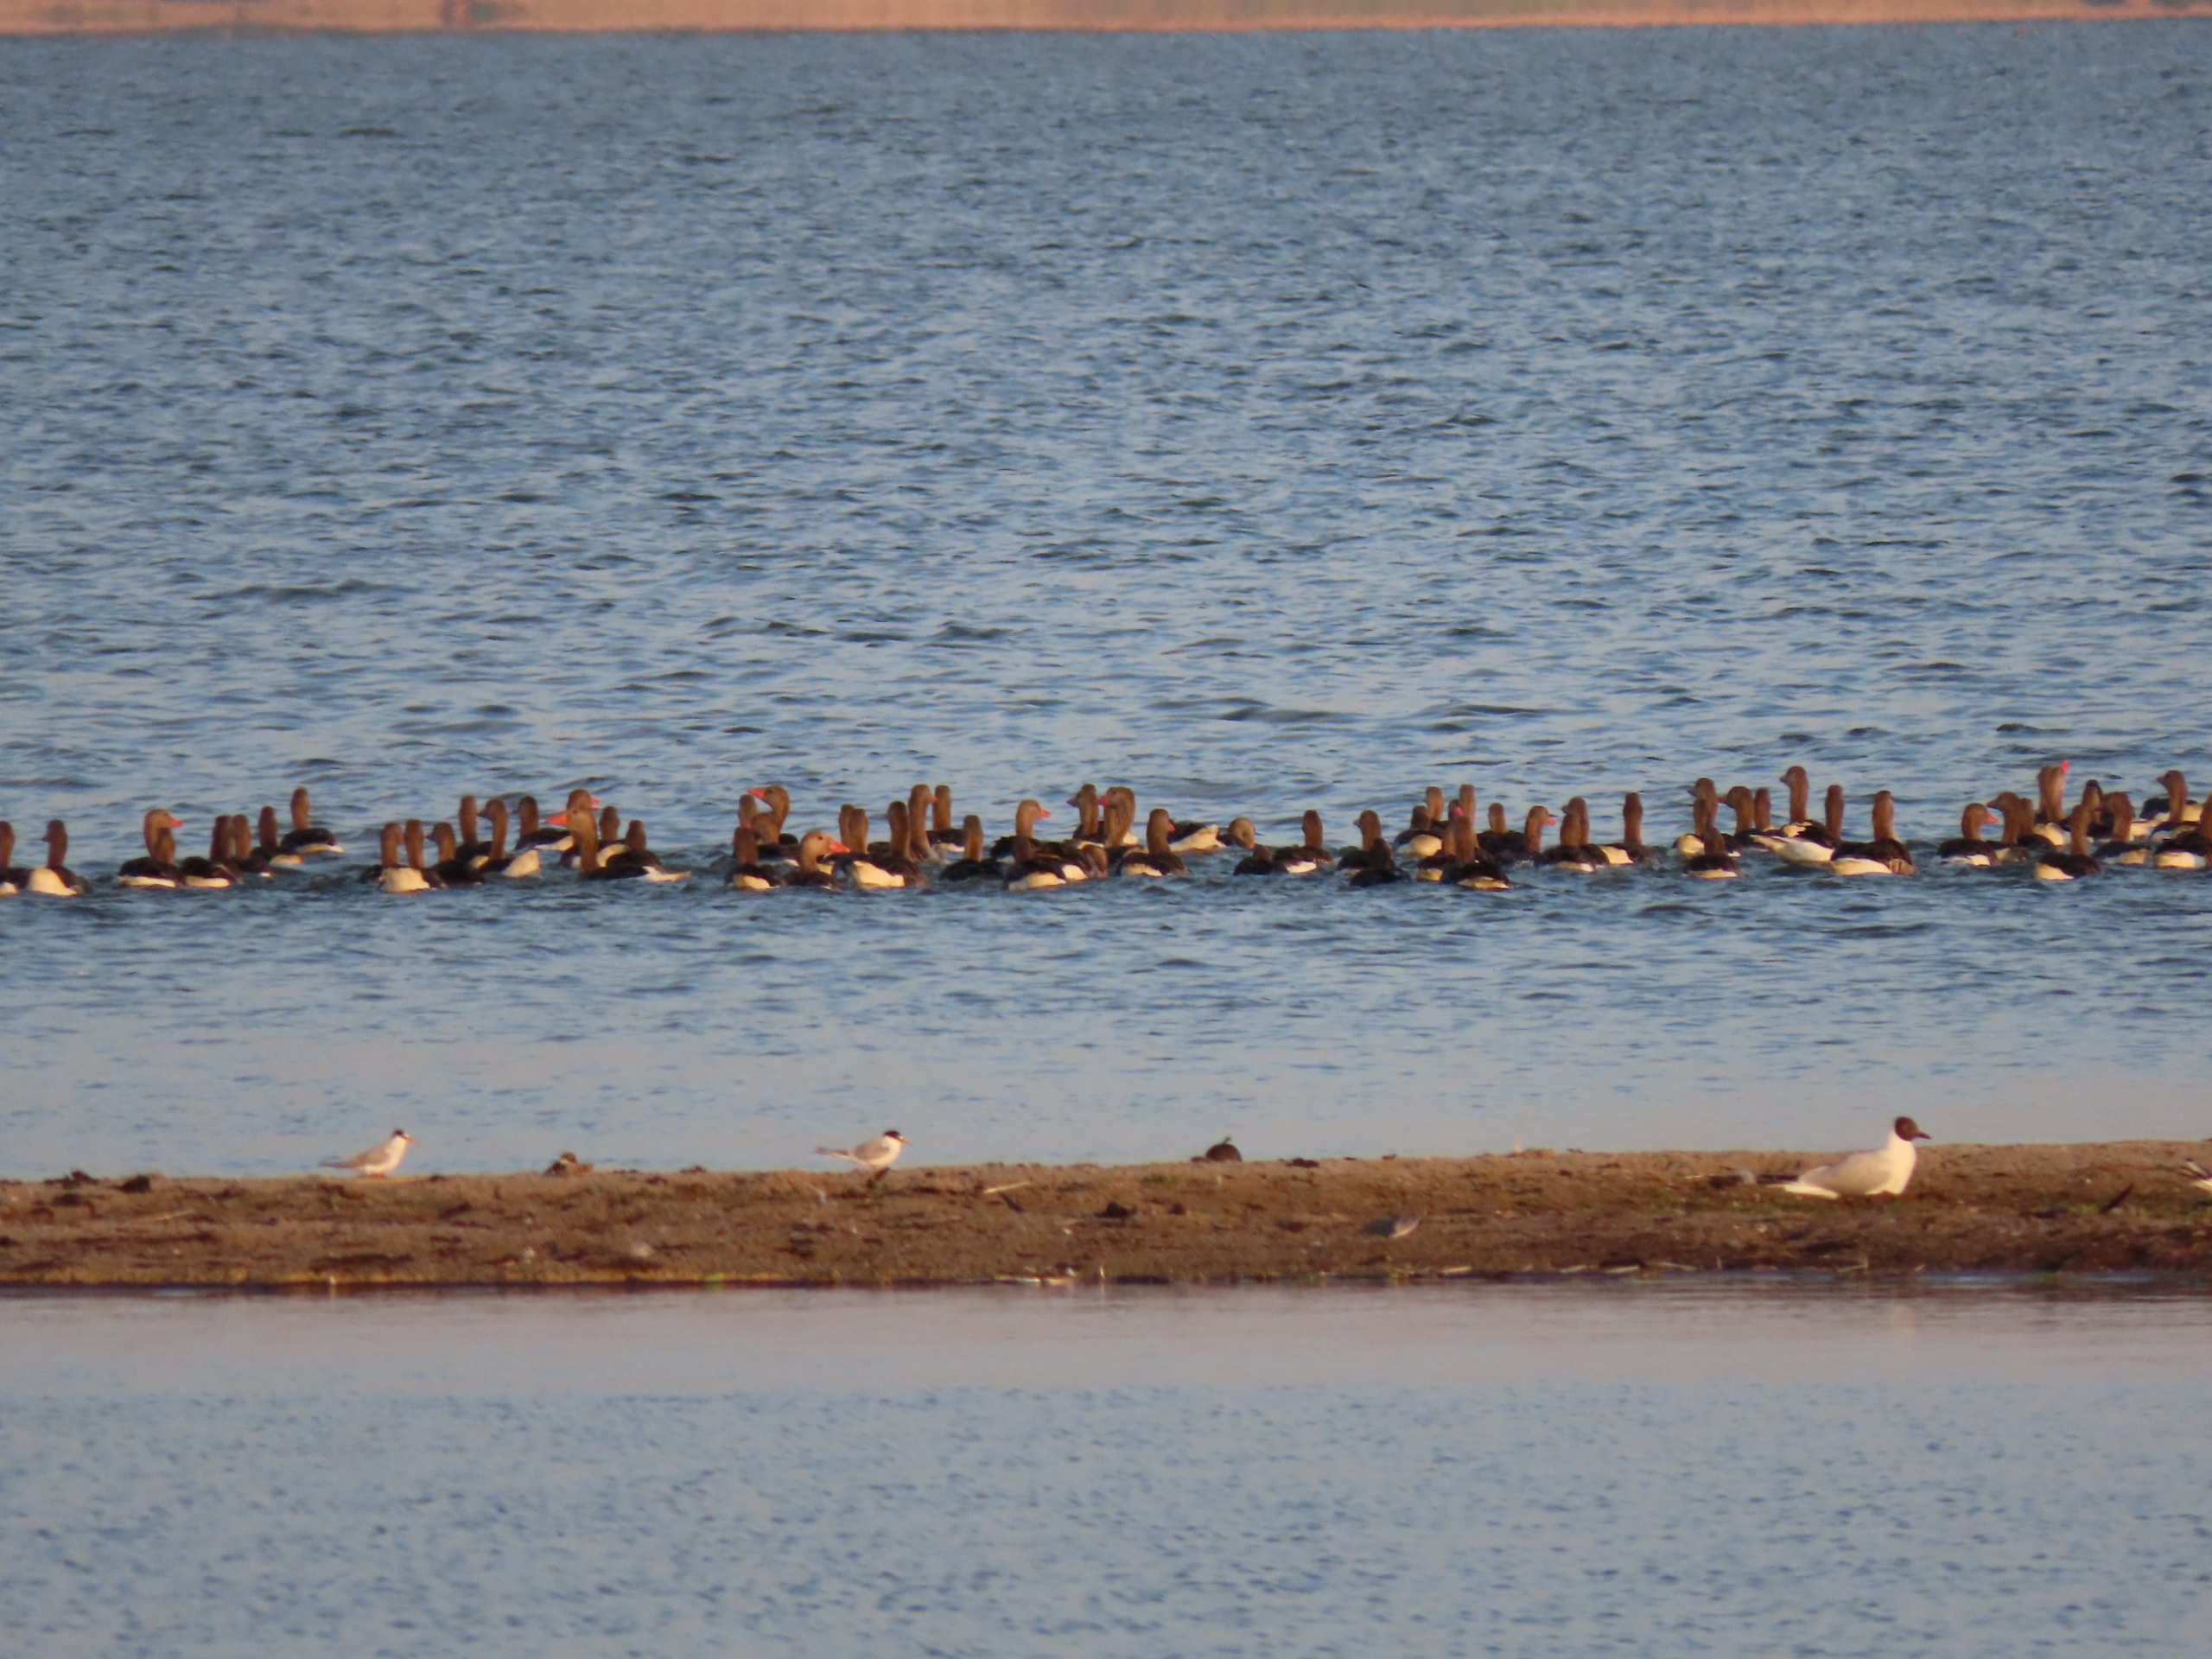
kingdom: Animalia
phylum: Chordata
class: Aves
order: Charadriiformes
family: Laridae
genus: Sternula
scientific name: Sternula albifrons
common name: Dværgterne
